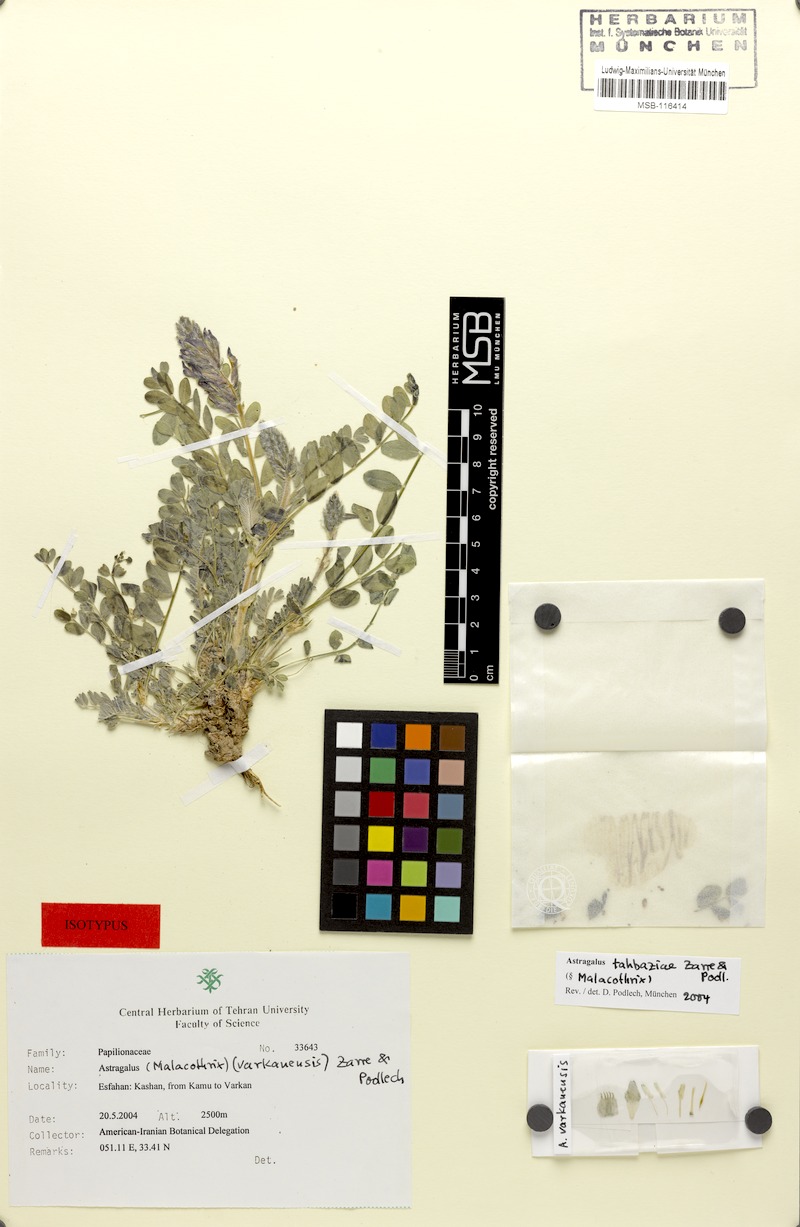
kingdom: Plantae
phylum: Tracheophyta
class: Magnoliopsida
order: Fabales
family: Fabaceae
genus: Astragalus
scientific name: Astragalus tahbaziae
